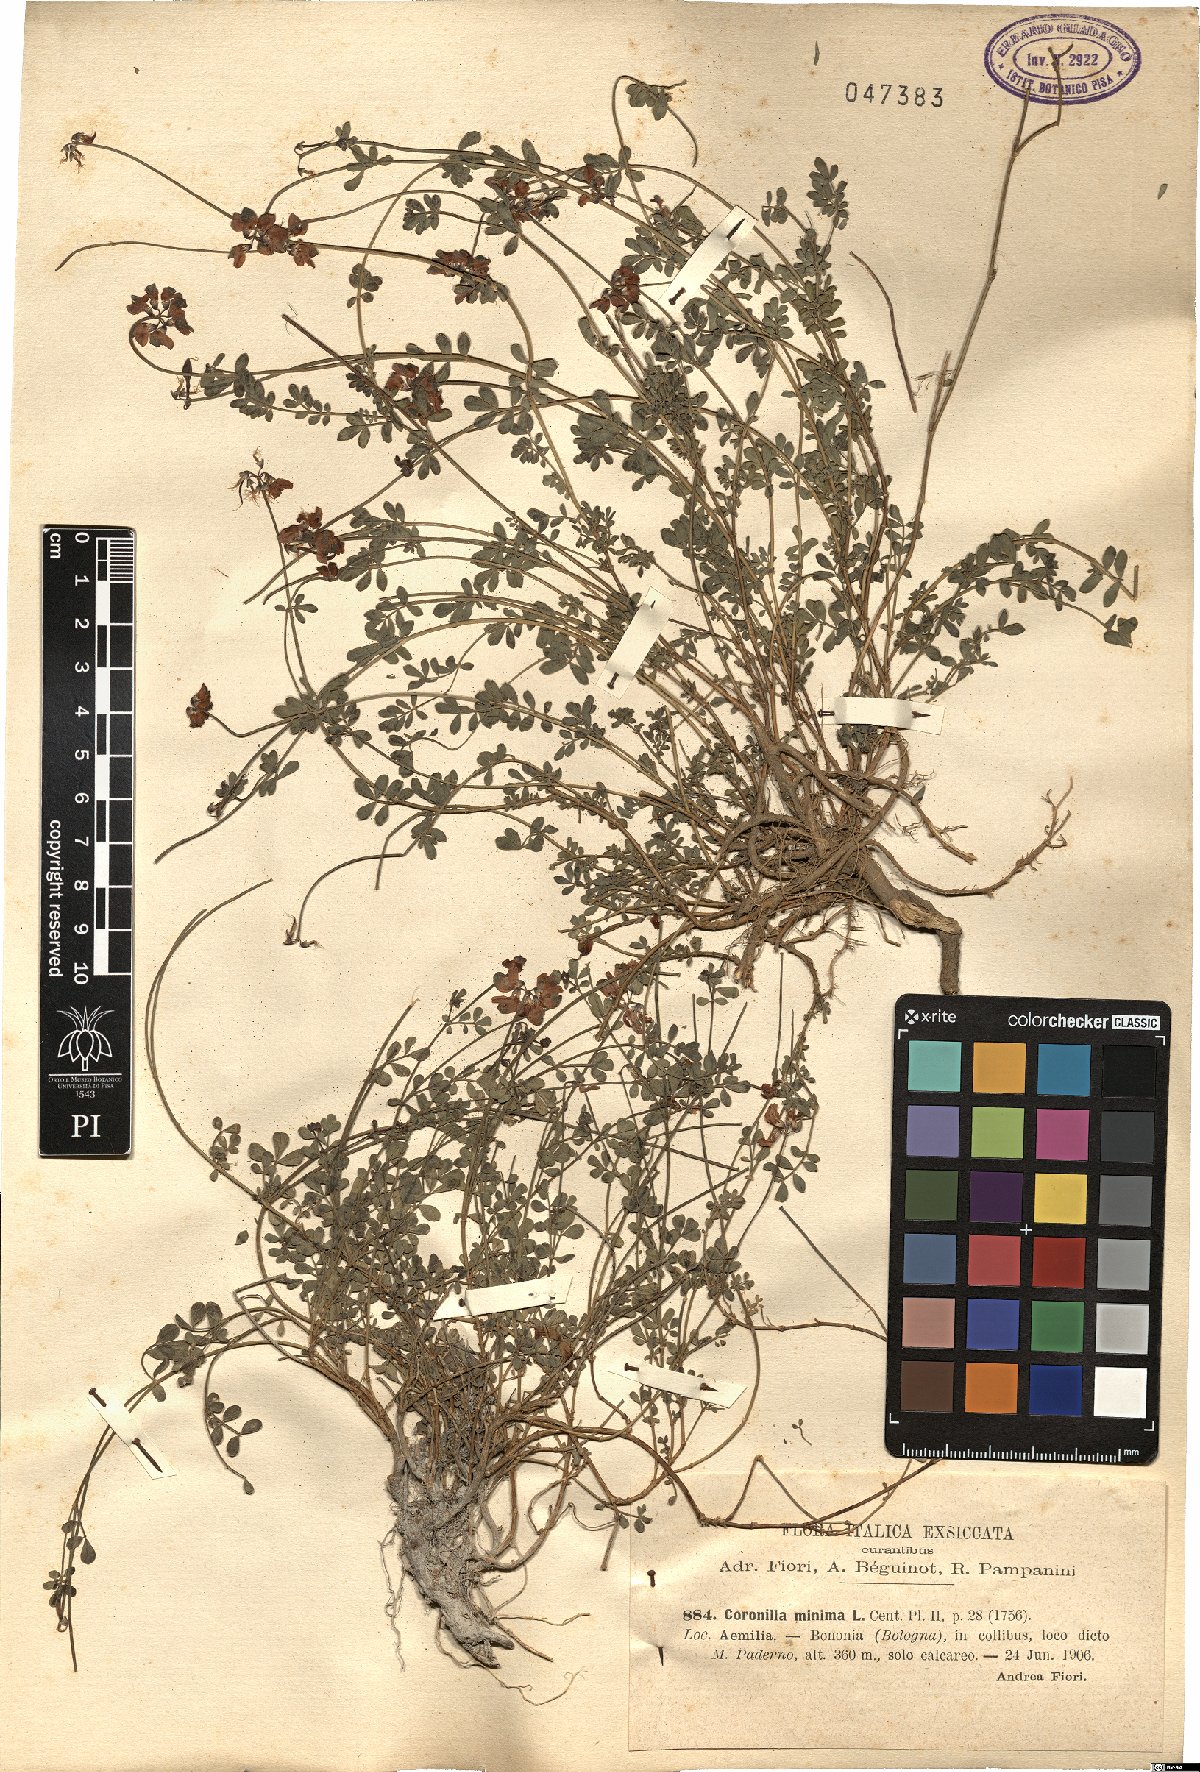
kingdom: Plantae
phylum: Tracheophyta
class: Magnoliopsida
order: Fabales
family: Fabaceae
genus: Coronilla
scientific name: Coronilla minima
